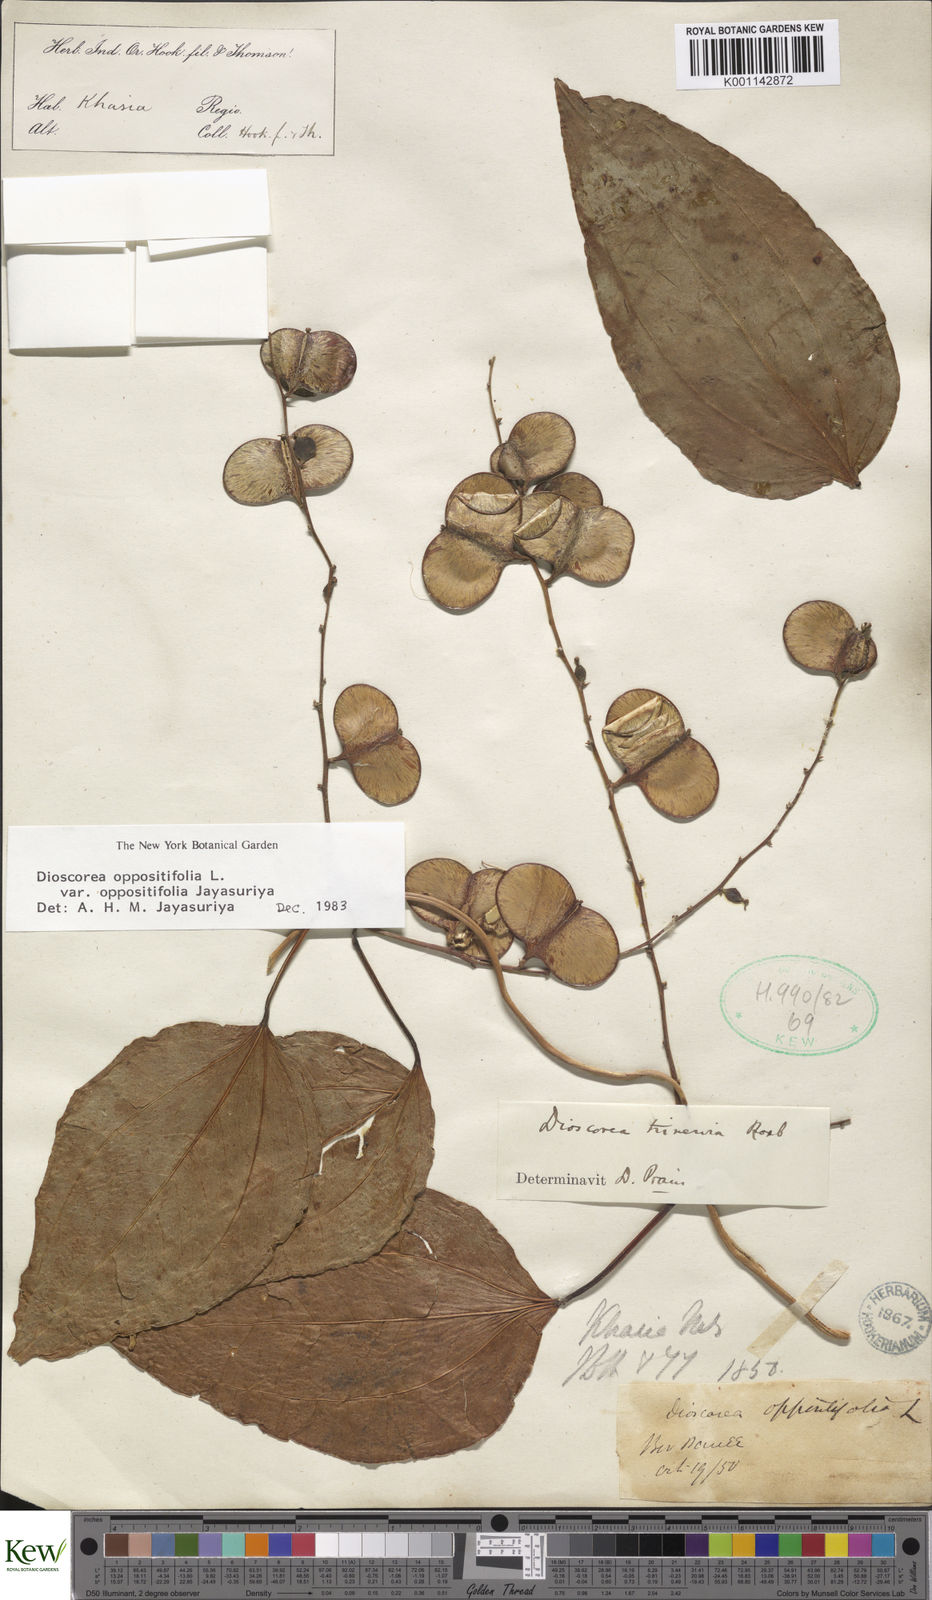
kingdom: Plantae
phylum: Tracheophyta
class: Liliopsida
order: Dioscoreales
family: Dioscoreaceae
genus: Dioscorea
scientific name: Dioscorea oppositifolia
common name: Chinese yam
